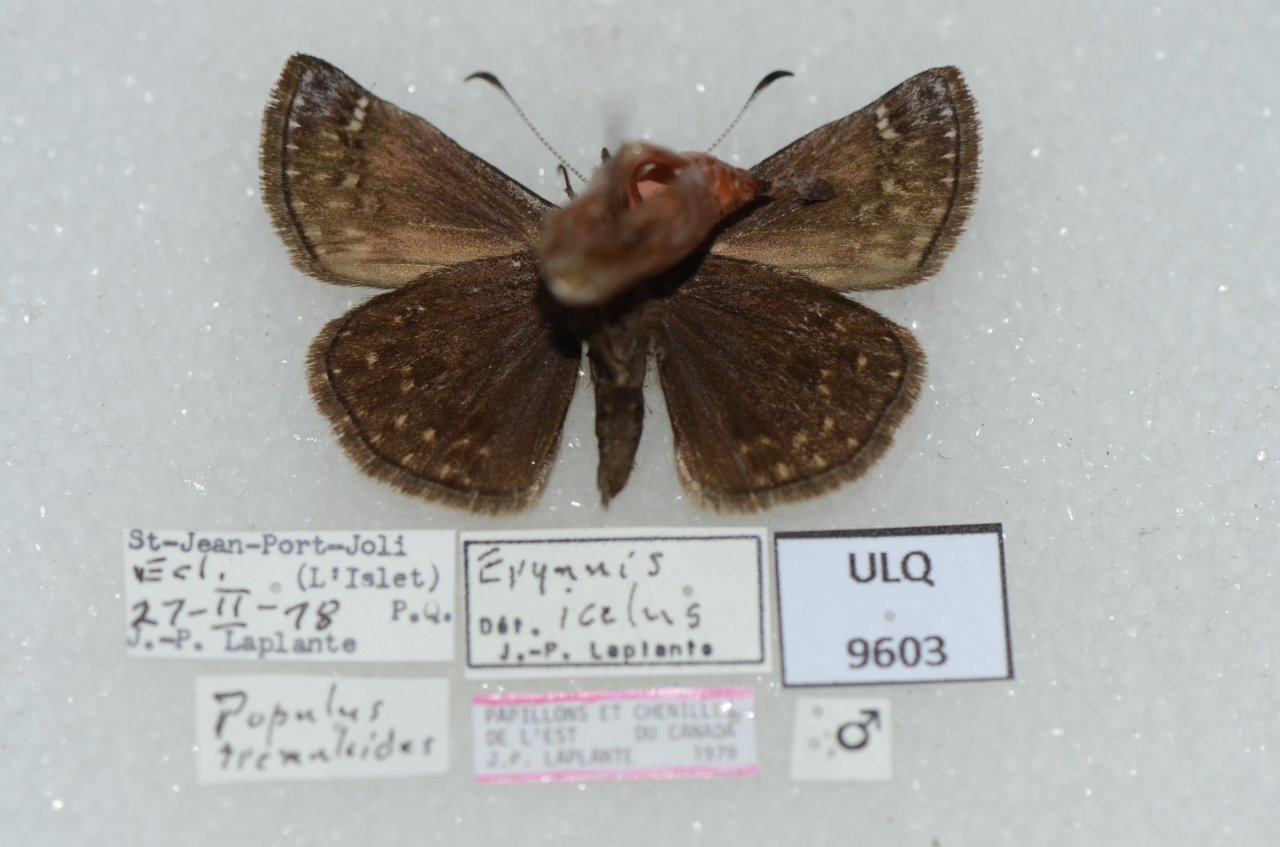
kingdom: Animalia
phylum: Arthropoda
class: Insecta
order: Lepidoptera
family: Hesperiidae
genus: Erynnis
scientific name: Erynnis icelus
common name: Dreamy Duskywing
